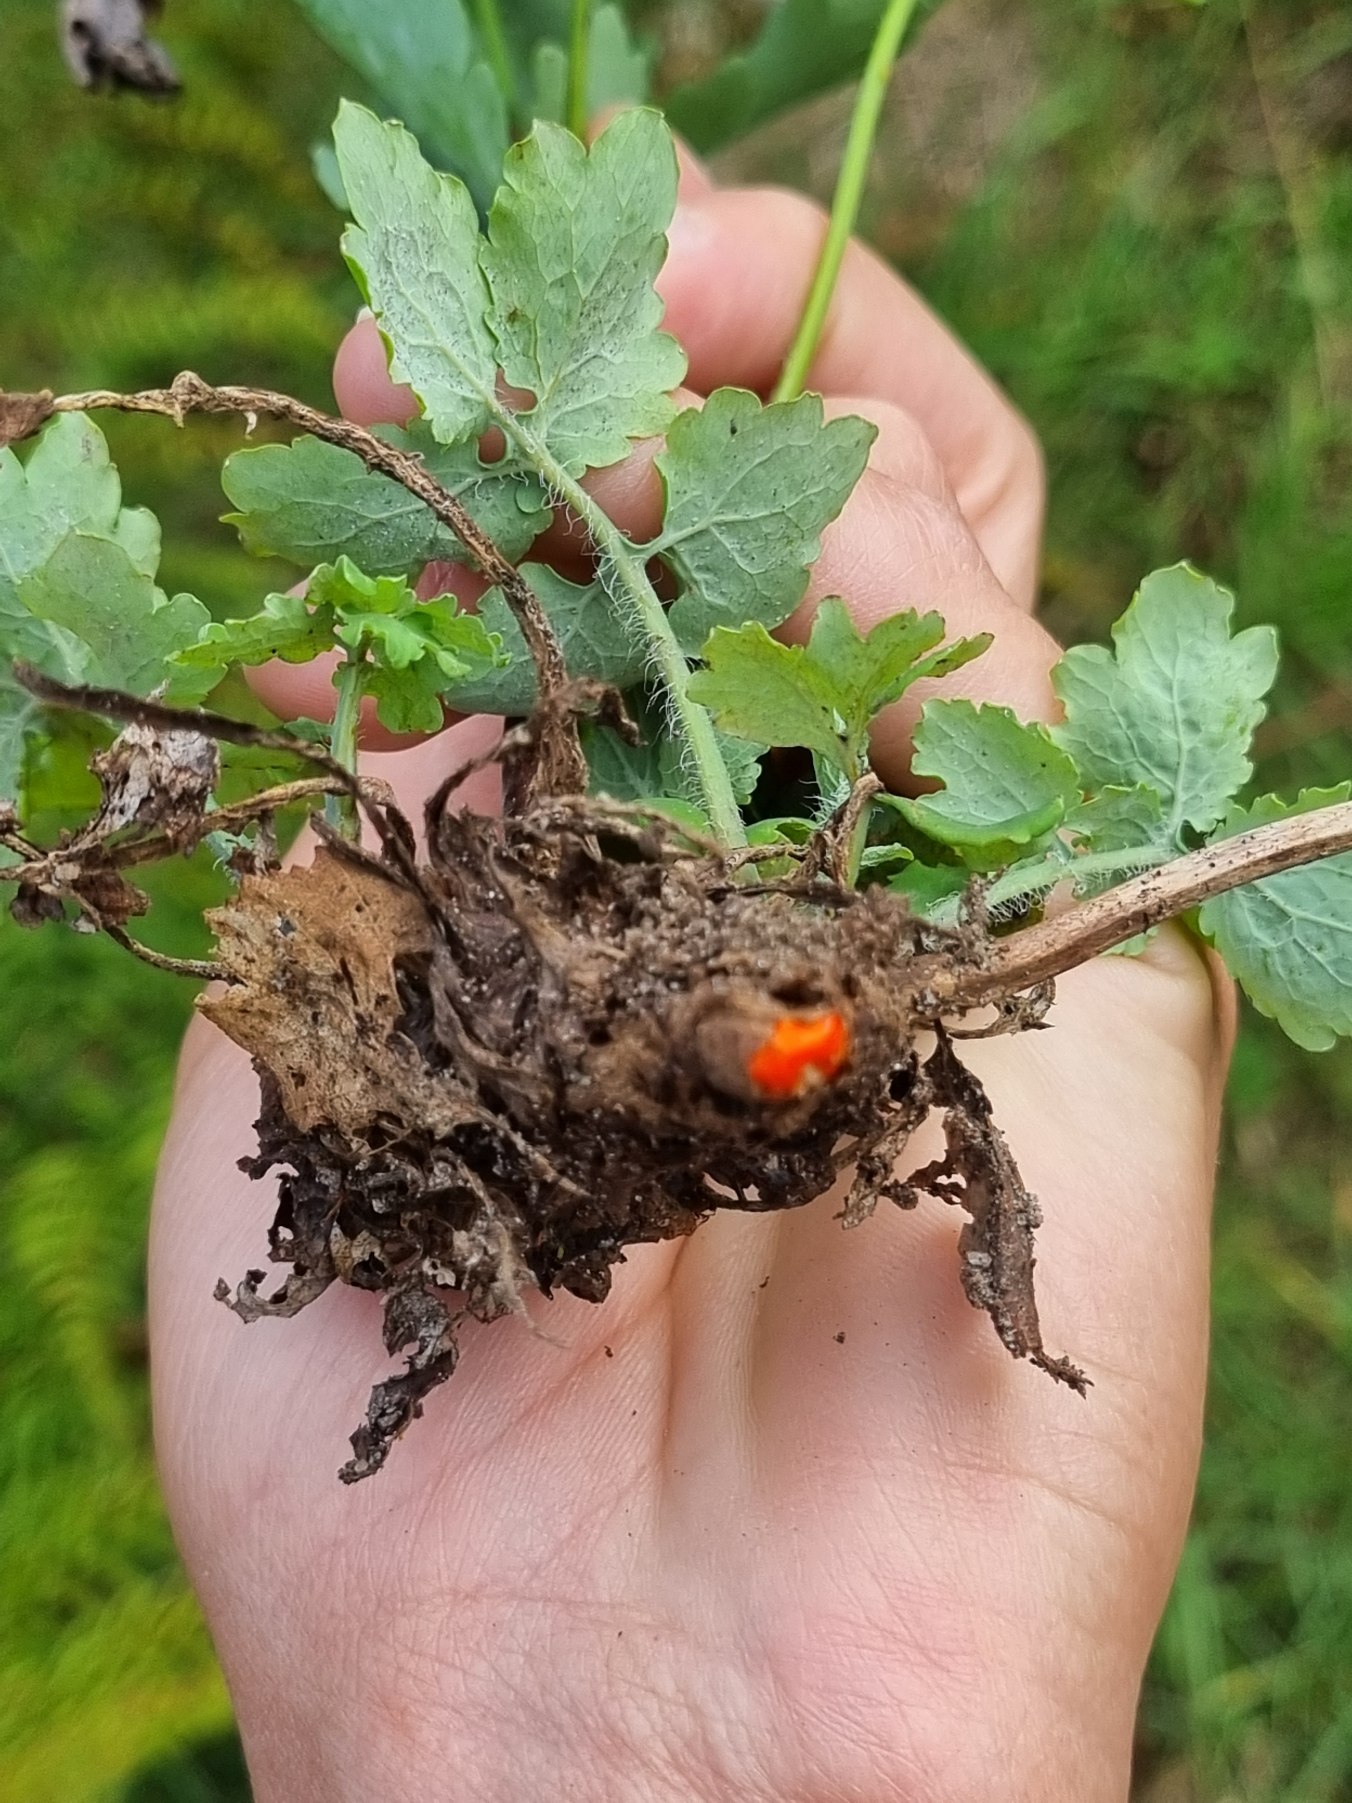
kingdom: Plantae
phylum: Tracheophyta
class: Magnoliopsida
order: Ranunculales
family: Papaveraceae
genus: Chelidonium
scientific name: Chelidonium majus
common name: Svaleurt
